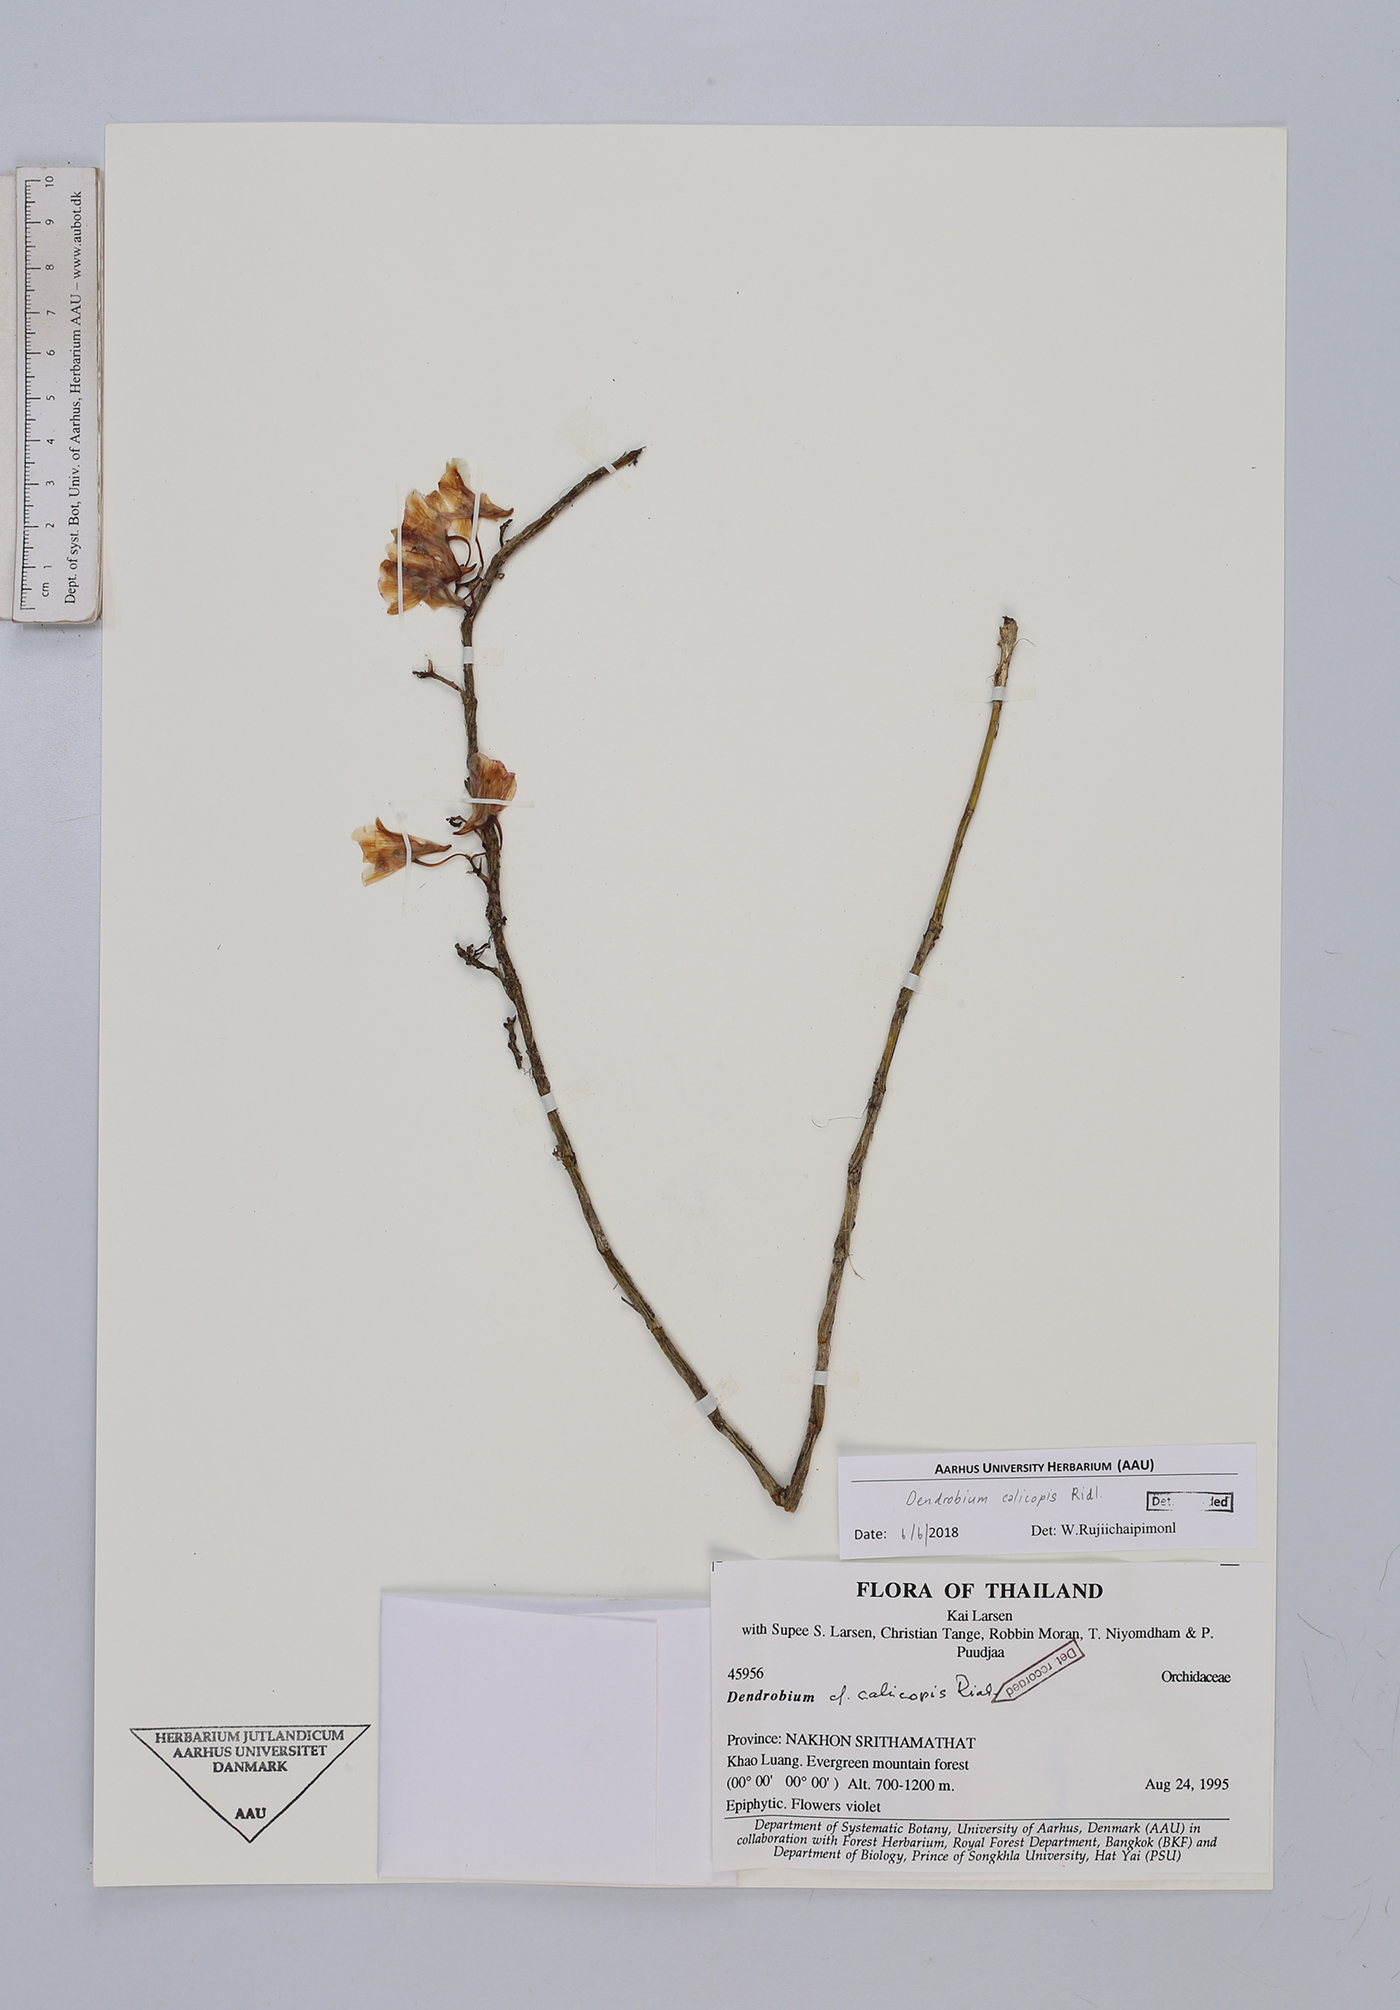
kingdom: Plantae
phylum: Tracheophyta
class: Liliopsida
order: Asparagales
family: Orchidaceae
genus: Dendrobium
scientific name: Dendrobium calicopis
